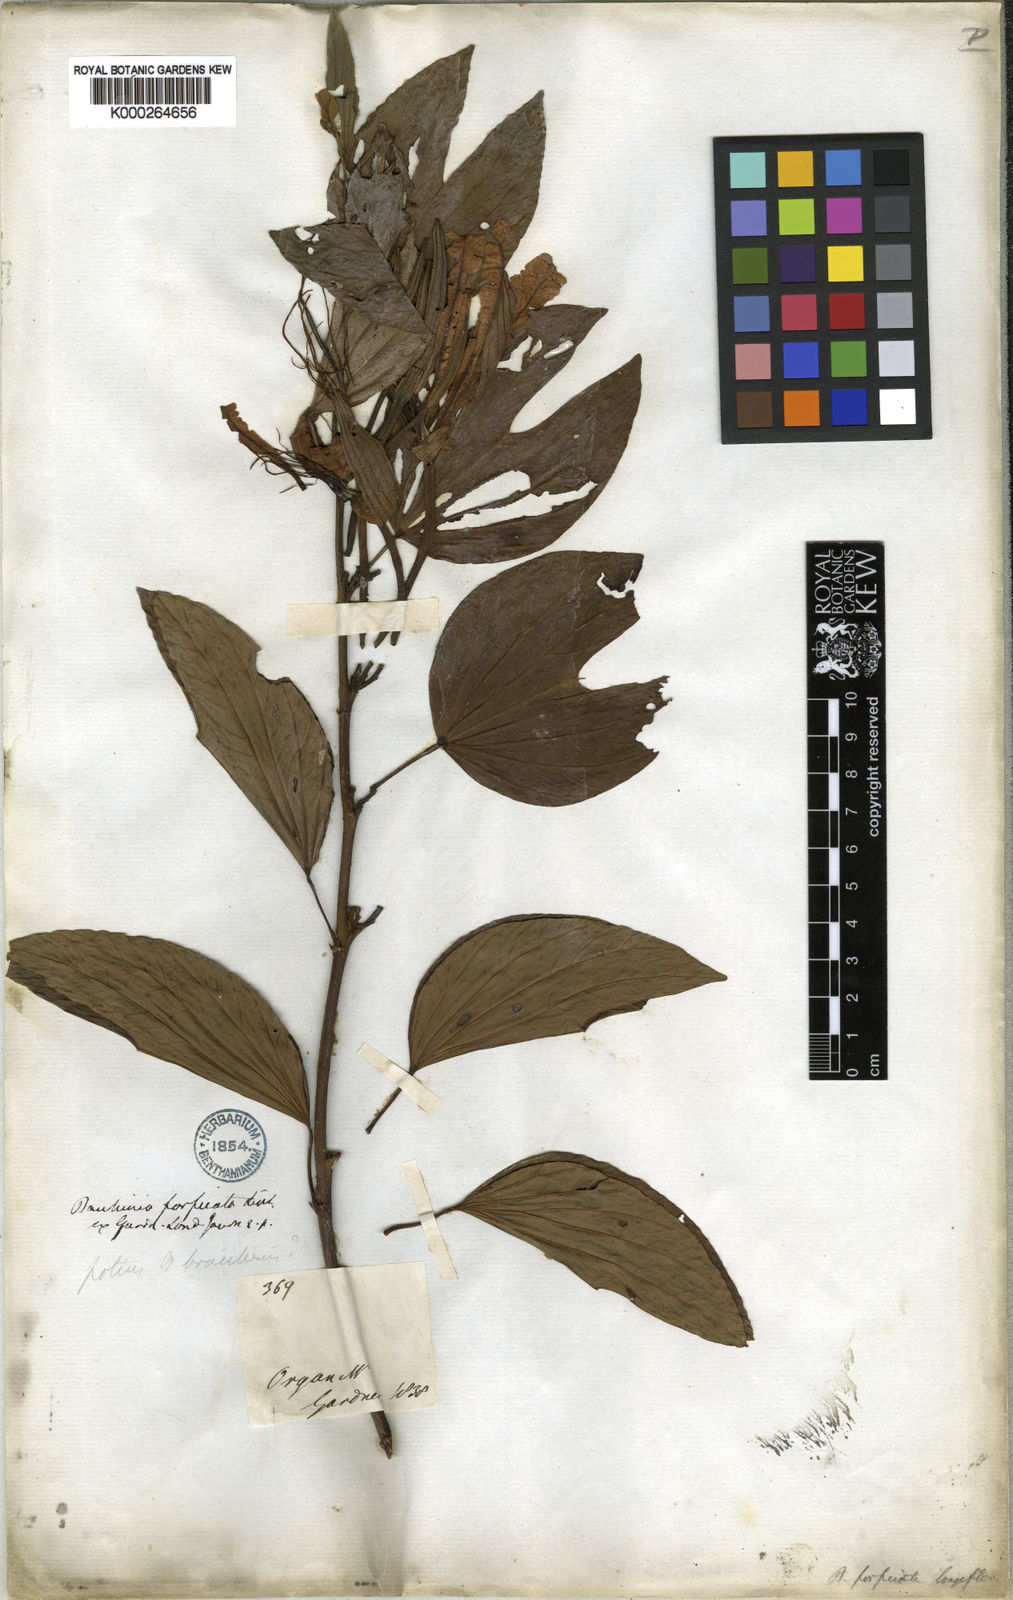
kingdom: Plantae
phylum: Tracheophyta
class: Magnoliopsida
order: Fabales
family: Fabaceae
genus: Bauhinia
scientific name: Bauhinia forficata
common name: Orchid tree
